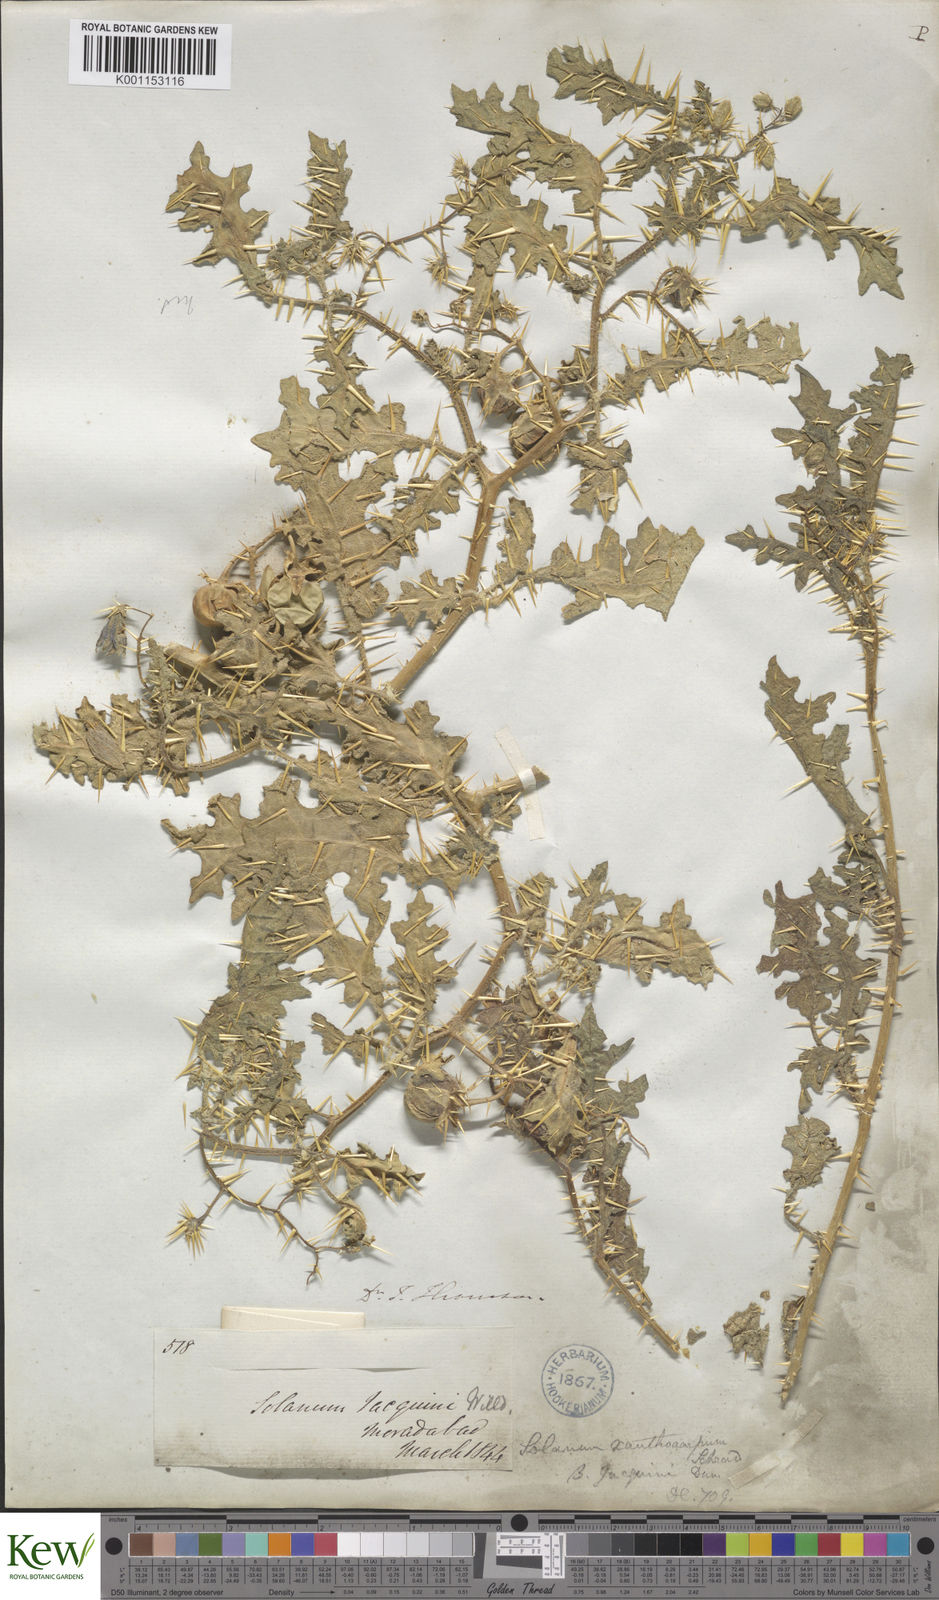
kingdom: Plantae
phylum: Tracheophyta
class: Magnoliopsida
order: Solanales
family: Solanaceae
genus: Solanum
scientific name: Solanum virginianum
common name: Surattense nightshade
